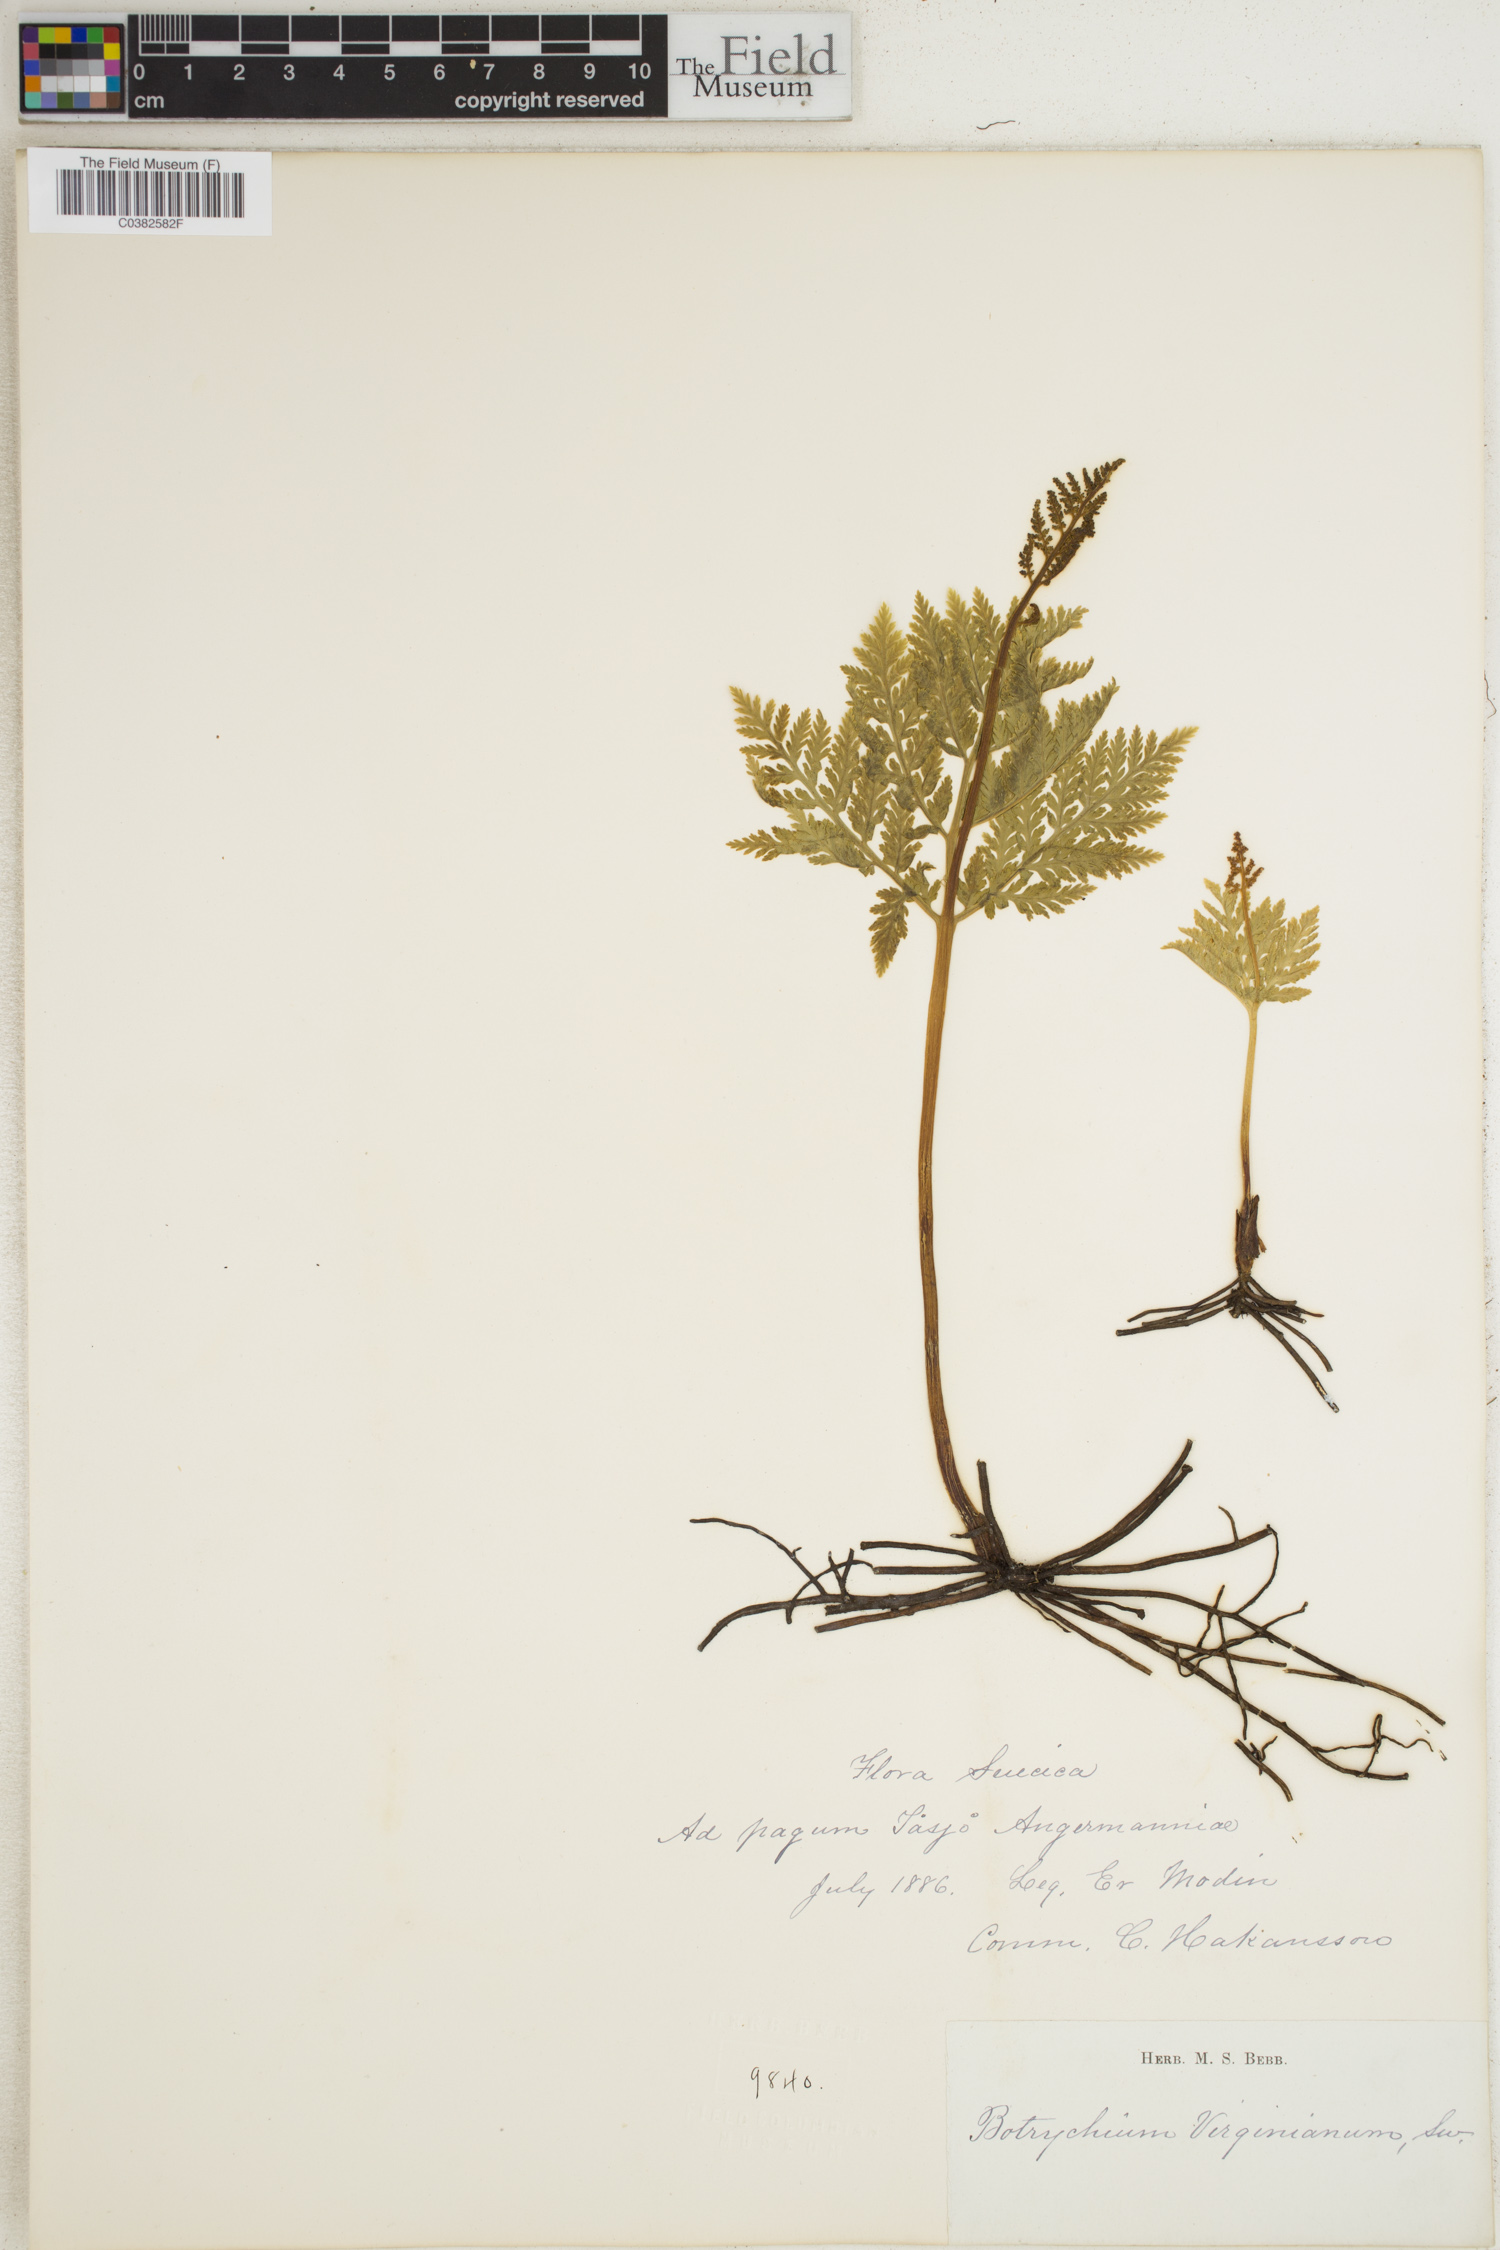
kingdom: Plantae
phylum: Tracheophyta
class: Polypodiopsida
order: Ophioglossales
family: Ophioglossaceae
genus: Botrypus
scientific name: Botrypus virginianus
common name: Common grapefern
